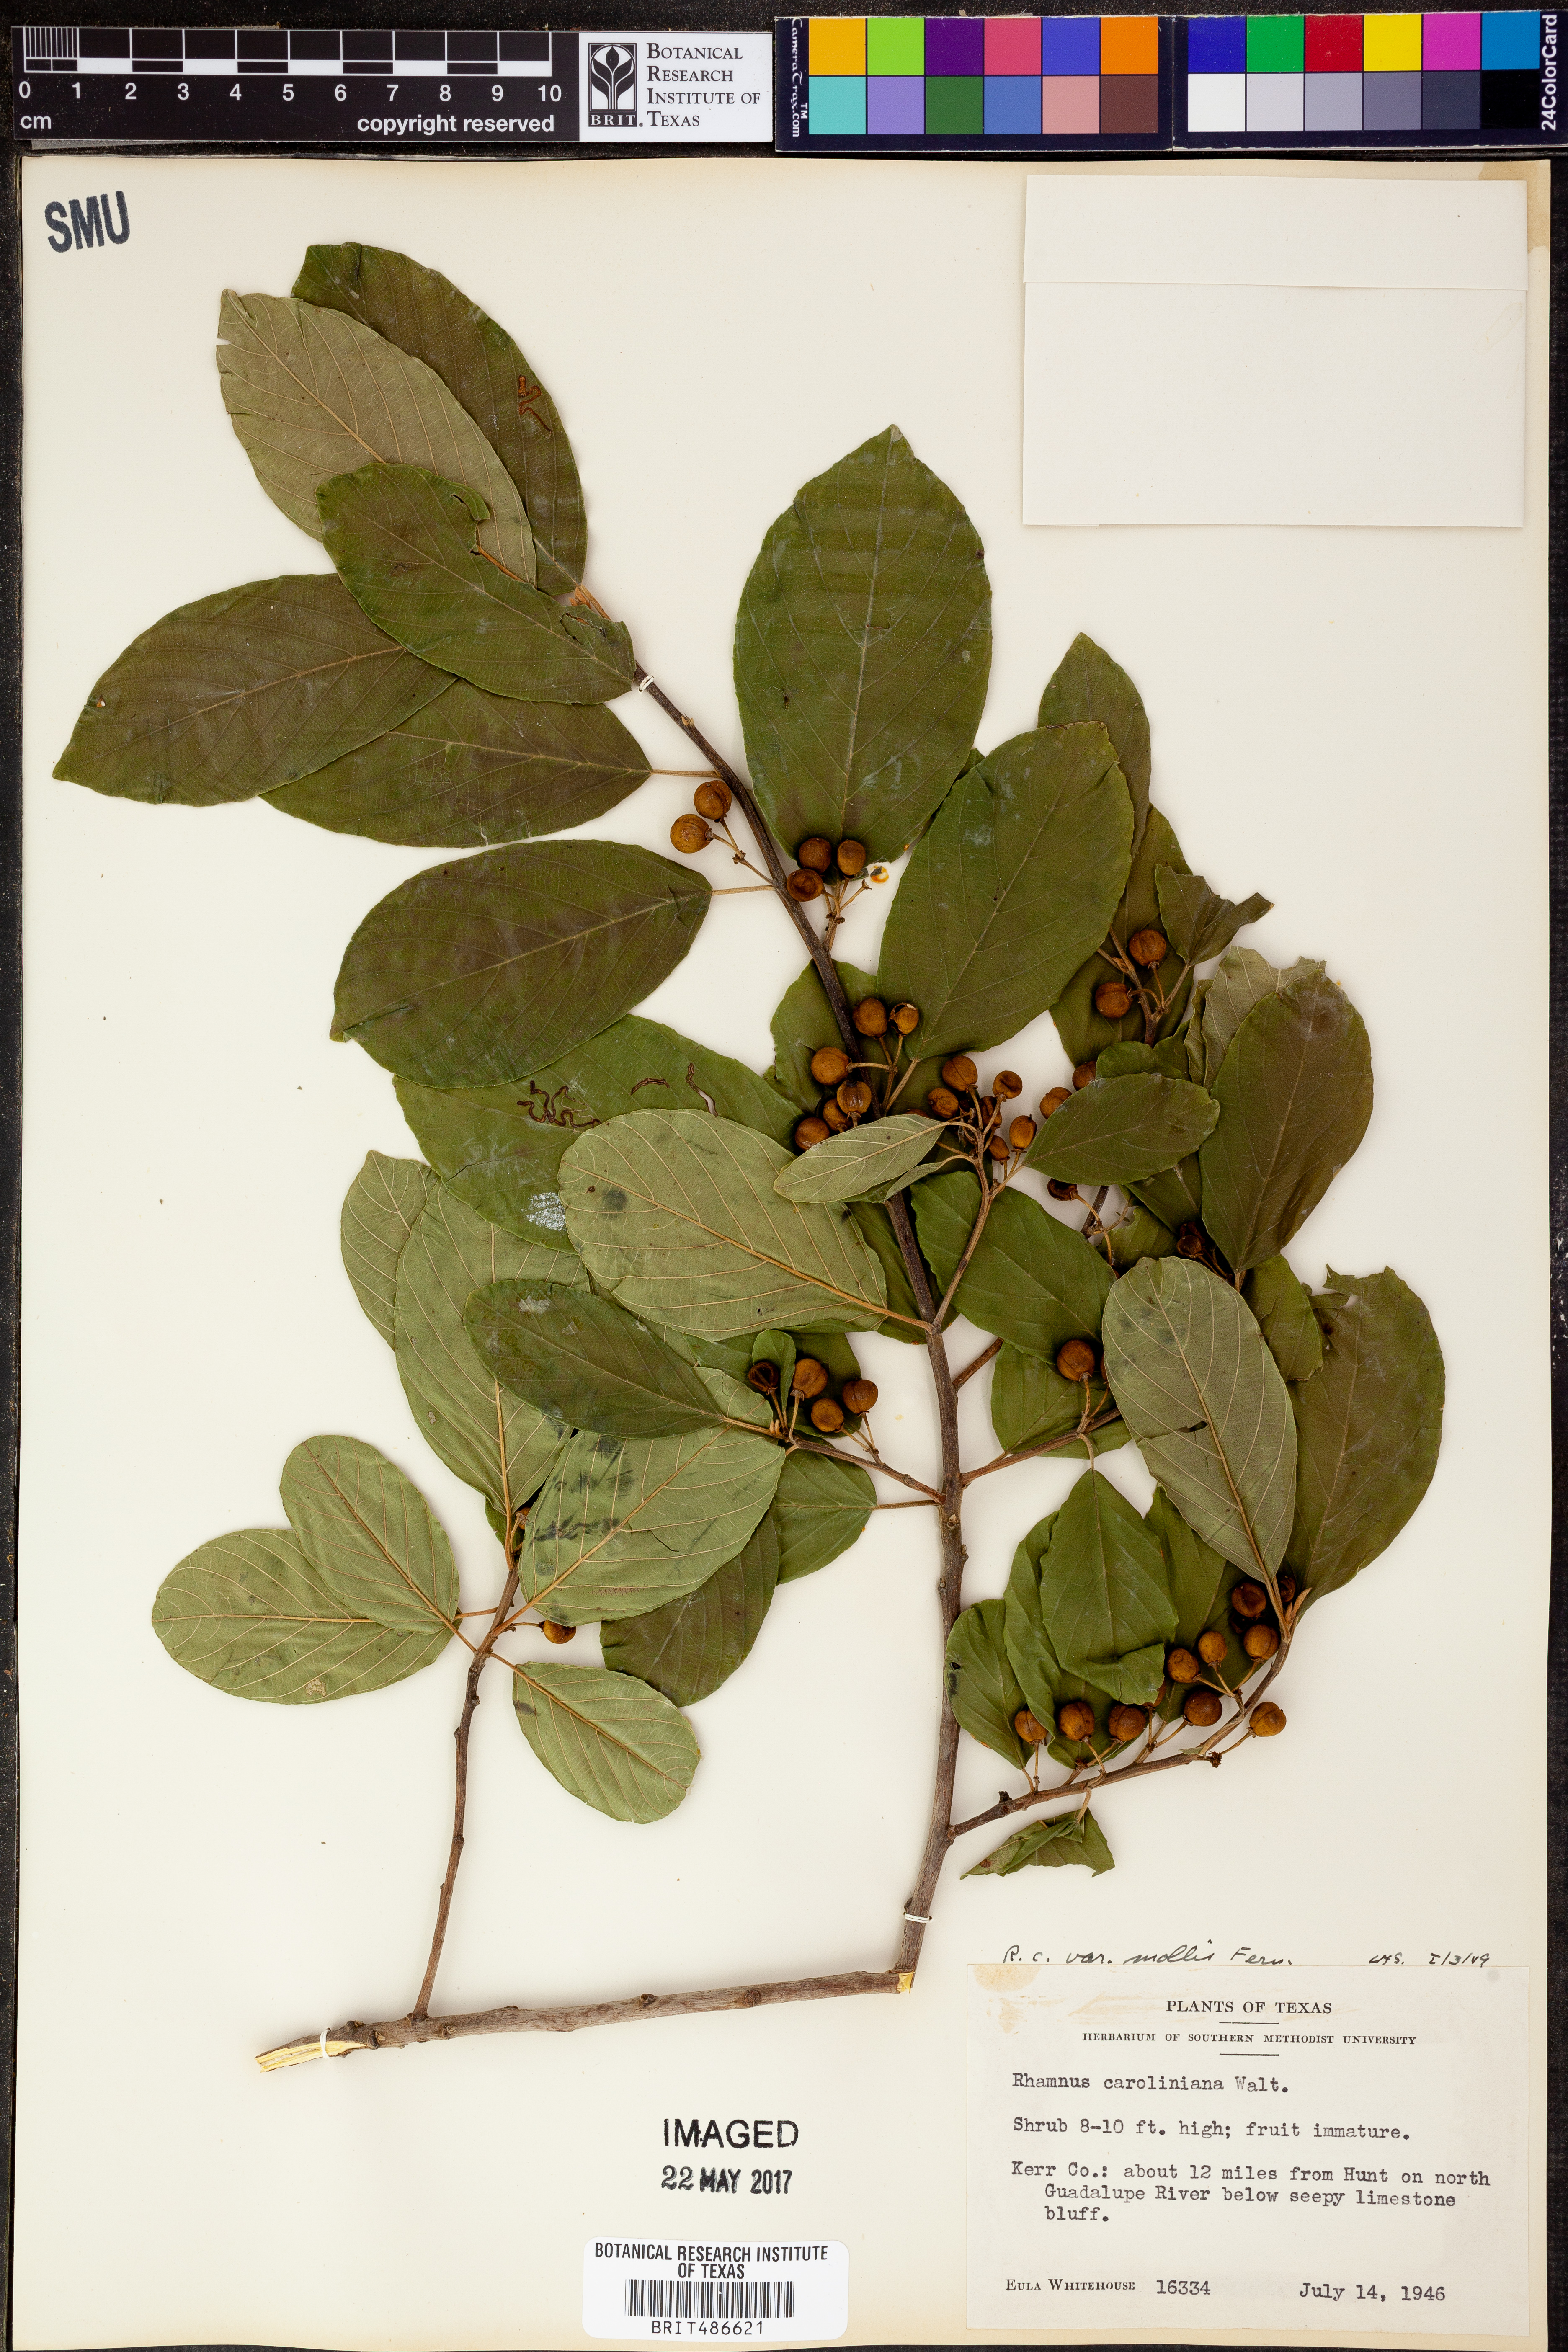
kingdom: Plantae
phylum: Tracheophyta
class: Magnoliopsida
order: Rosales
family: Rhamnaceae
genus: Frangula
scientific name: Frangula caroliniana
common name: Carolina buckthorn
